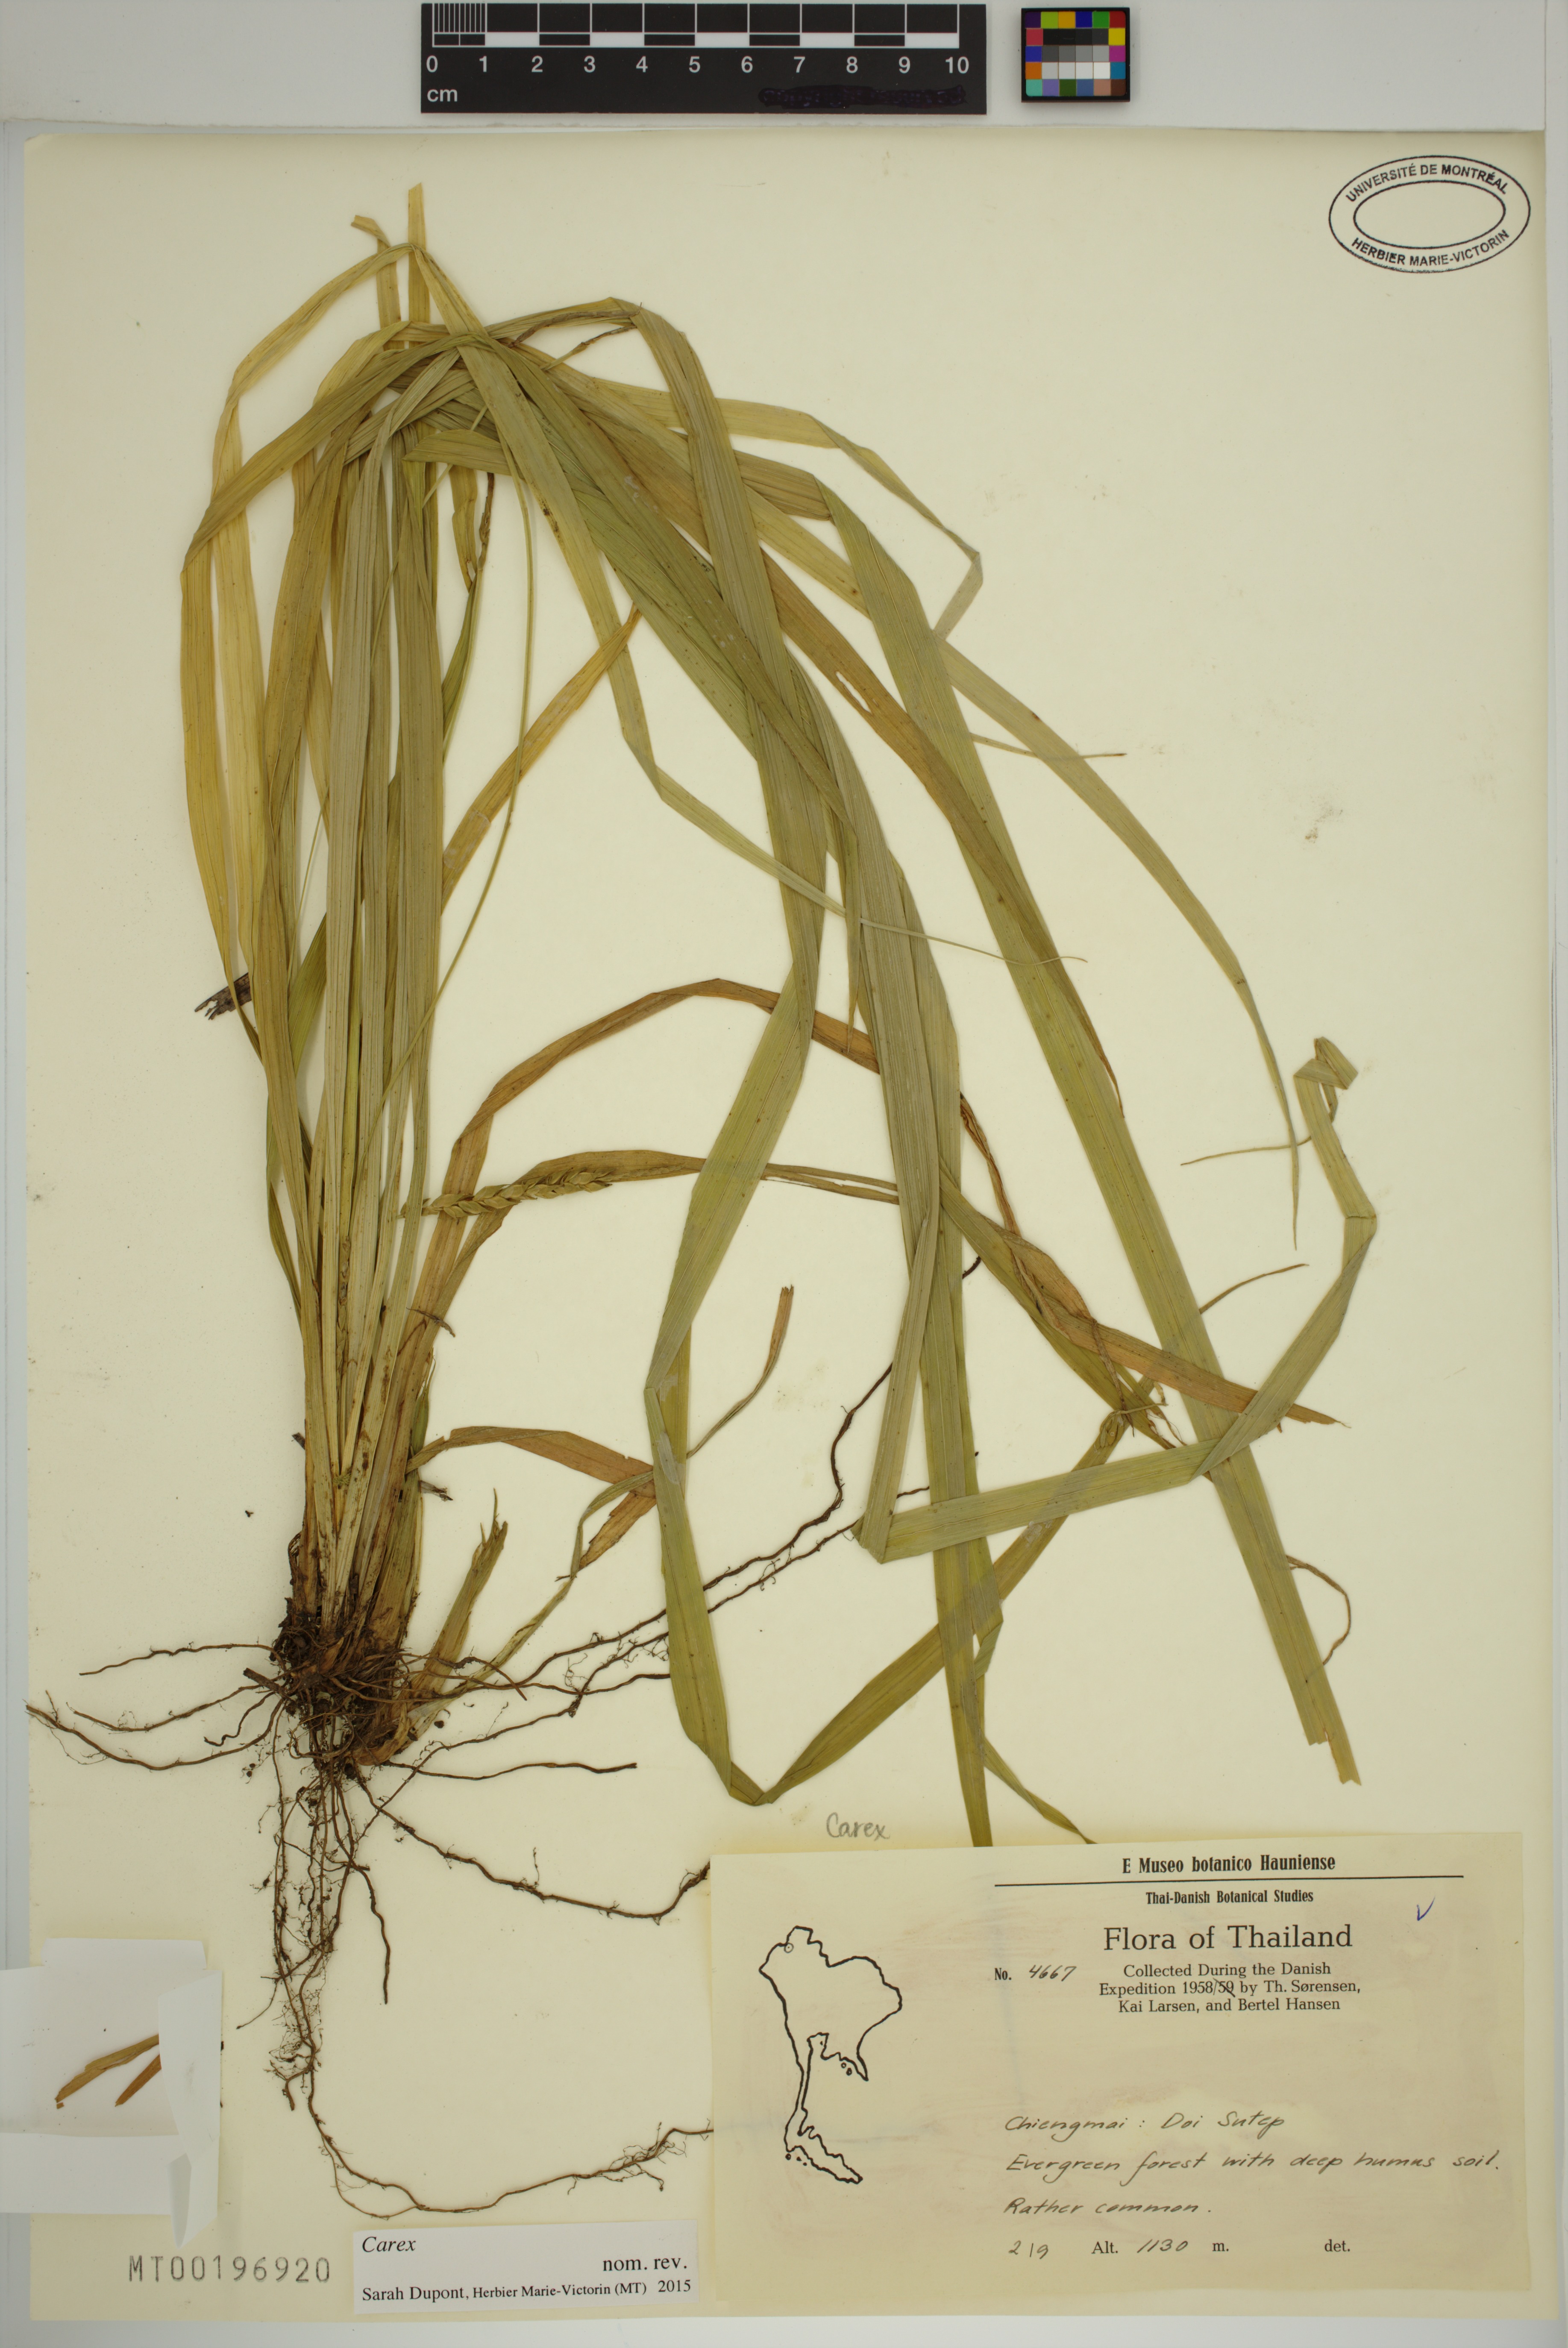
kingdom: Plantae
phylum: Tracheophyta
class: Liliopsida
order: Poales
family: Cyperaceae
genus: Carex
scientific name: Carex
